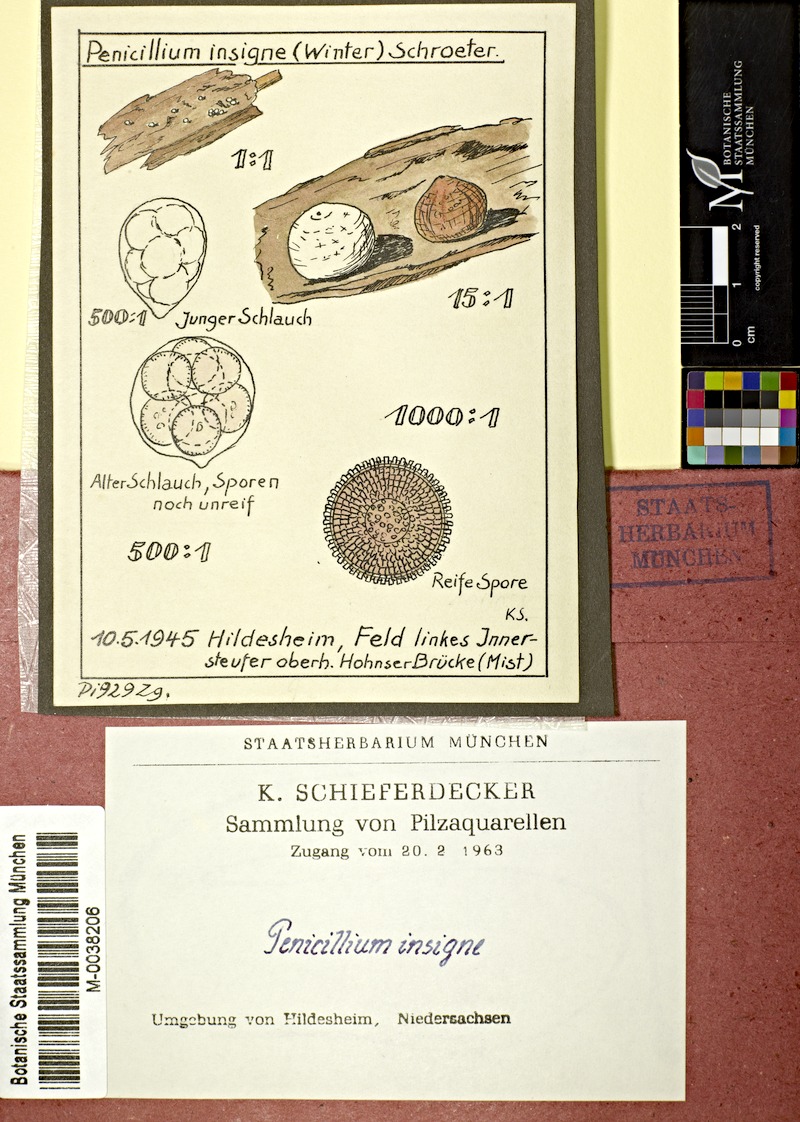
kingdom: Fungi
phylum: Ascomycota
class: Sordariomycetes
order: Hypocreales
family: Bionectriaceae
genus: Roumegueriella
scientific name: Roumegueriella rufula
